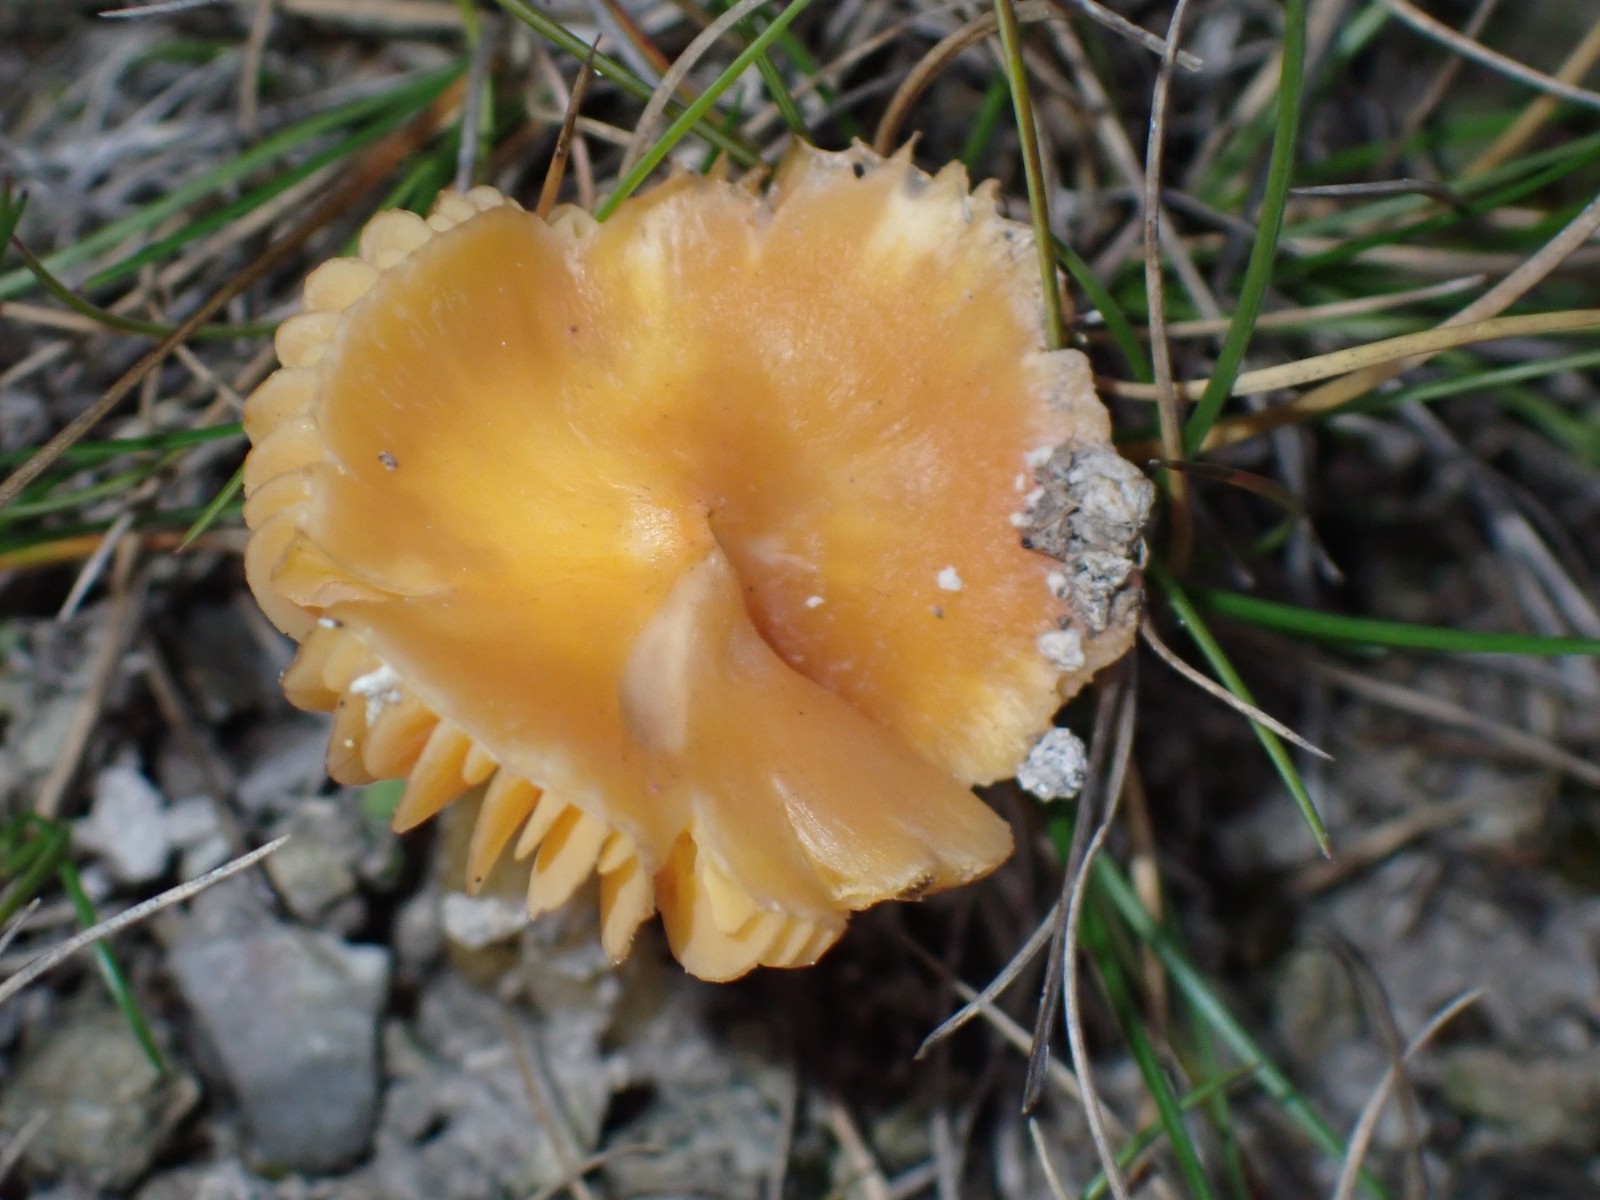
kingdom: Fungi
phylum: Basidiomycota
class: Agaricomycetes
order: Agaricales
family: Hygrophoraceae
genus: Hygrocybe
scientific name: Hygrocybe acutoconica
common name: Konrads vokshat
